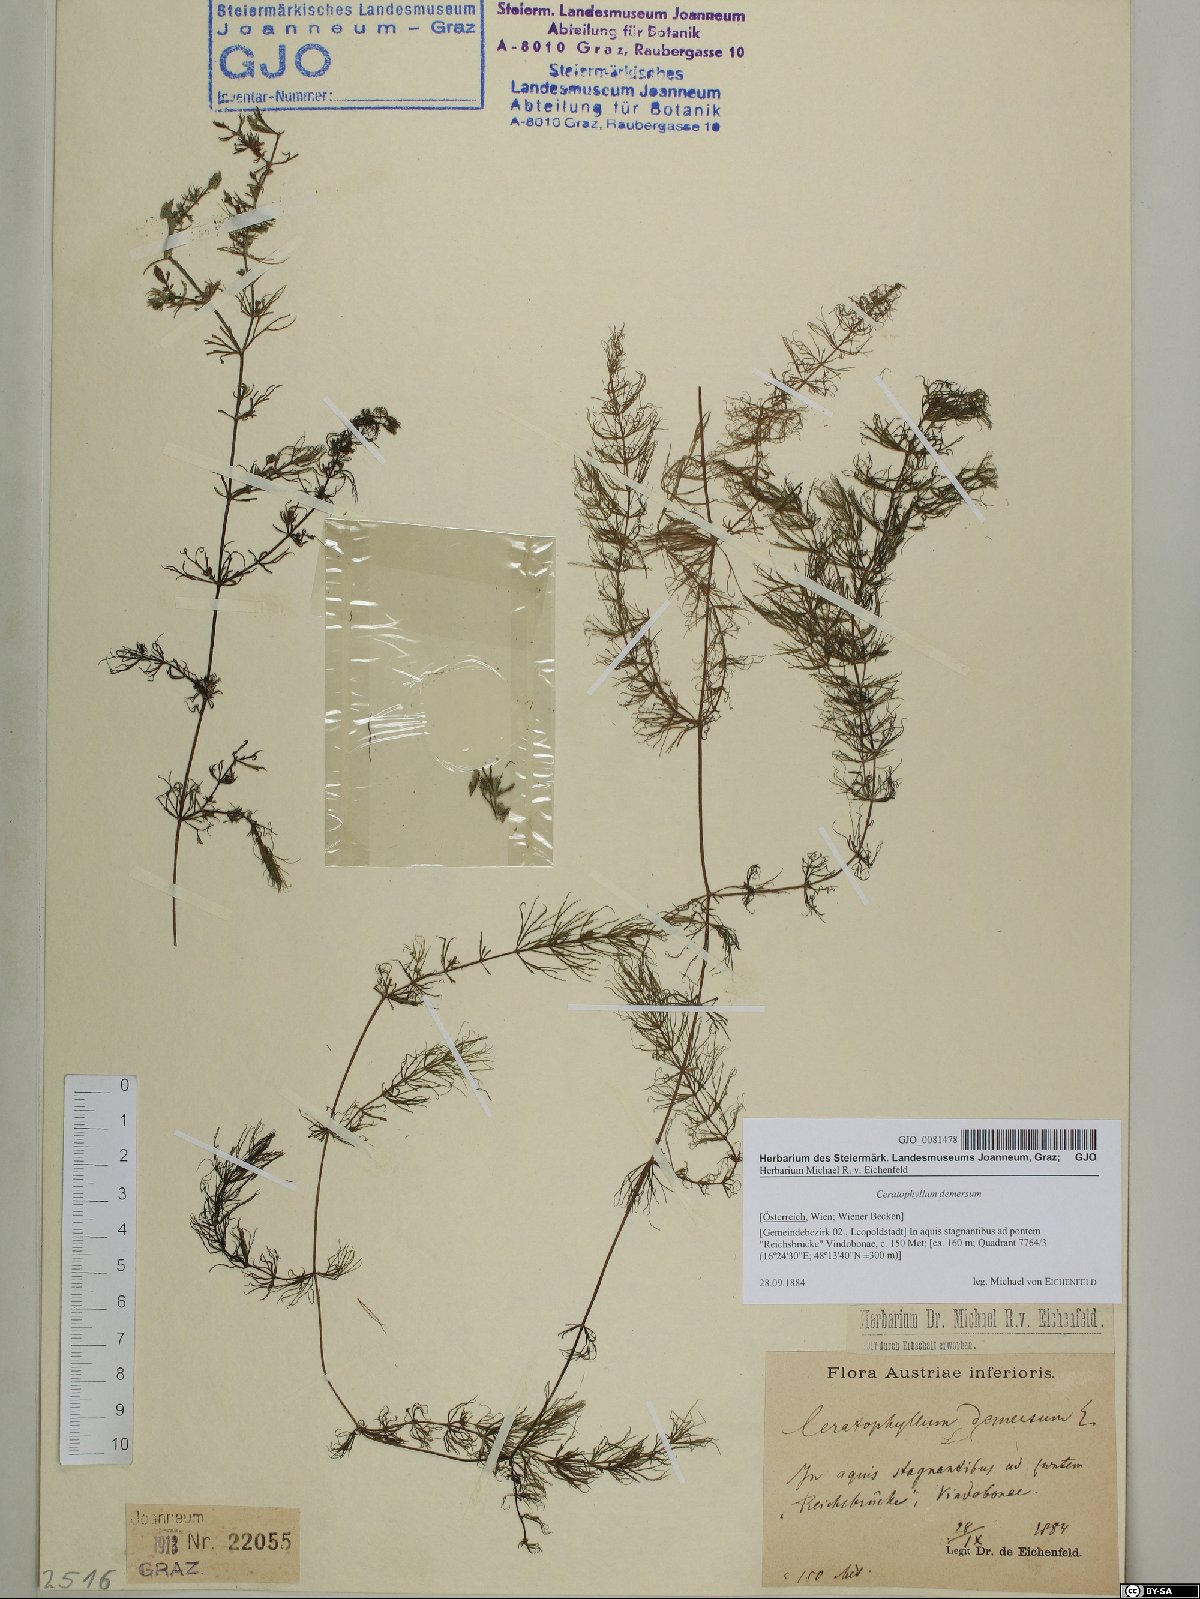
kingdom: Plantae
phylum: Tracheophyta
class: Magnoliopsida
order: Ceratophyllales
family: Ceratophyllaceae
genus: Ceratophyllum
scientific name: Ceratophyllum demersum
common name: Rigid hornwort
